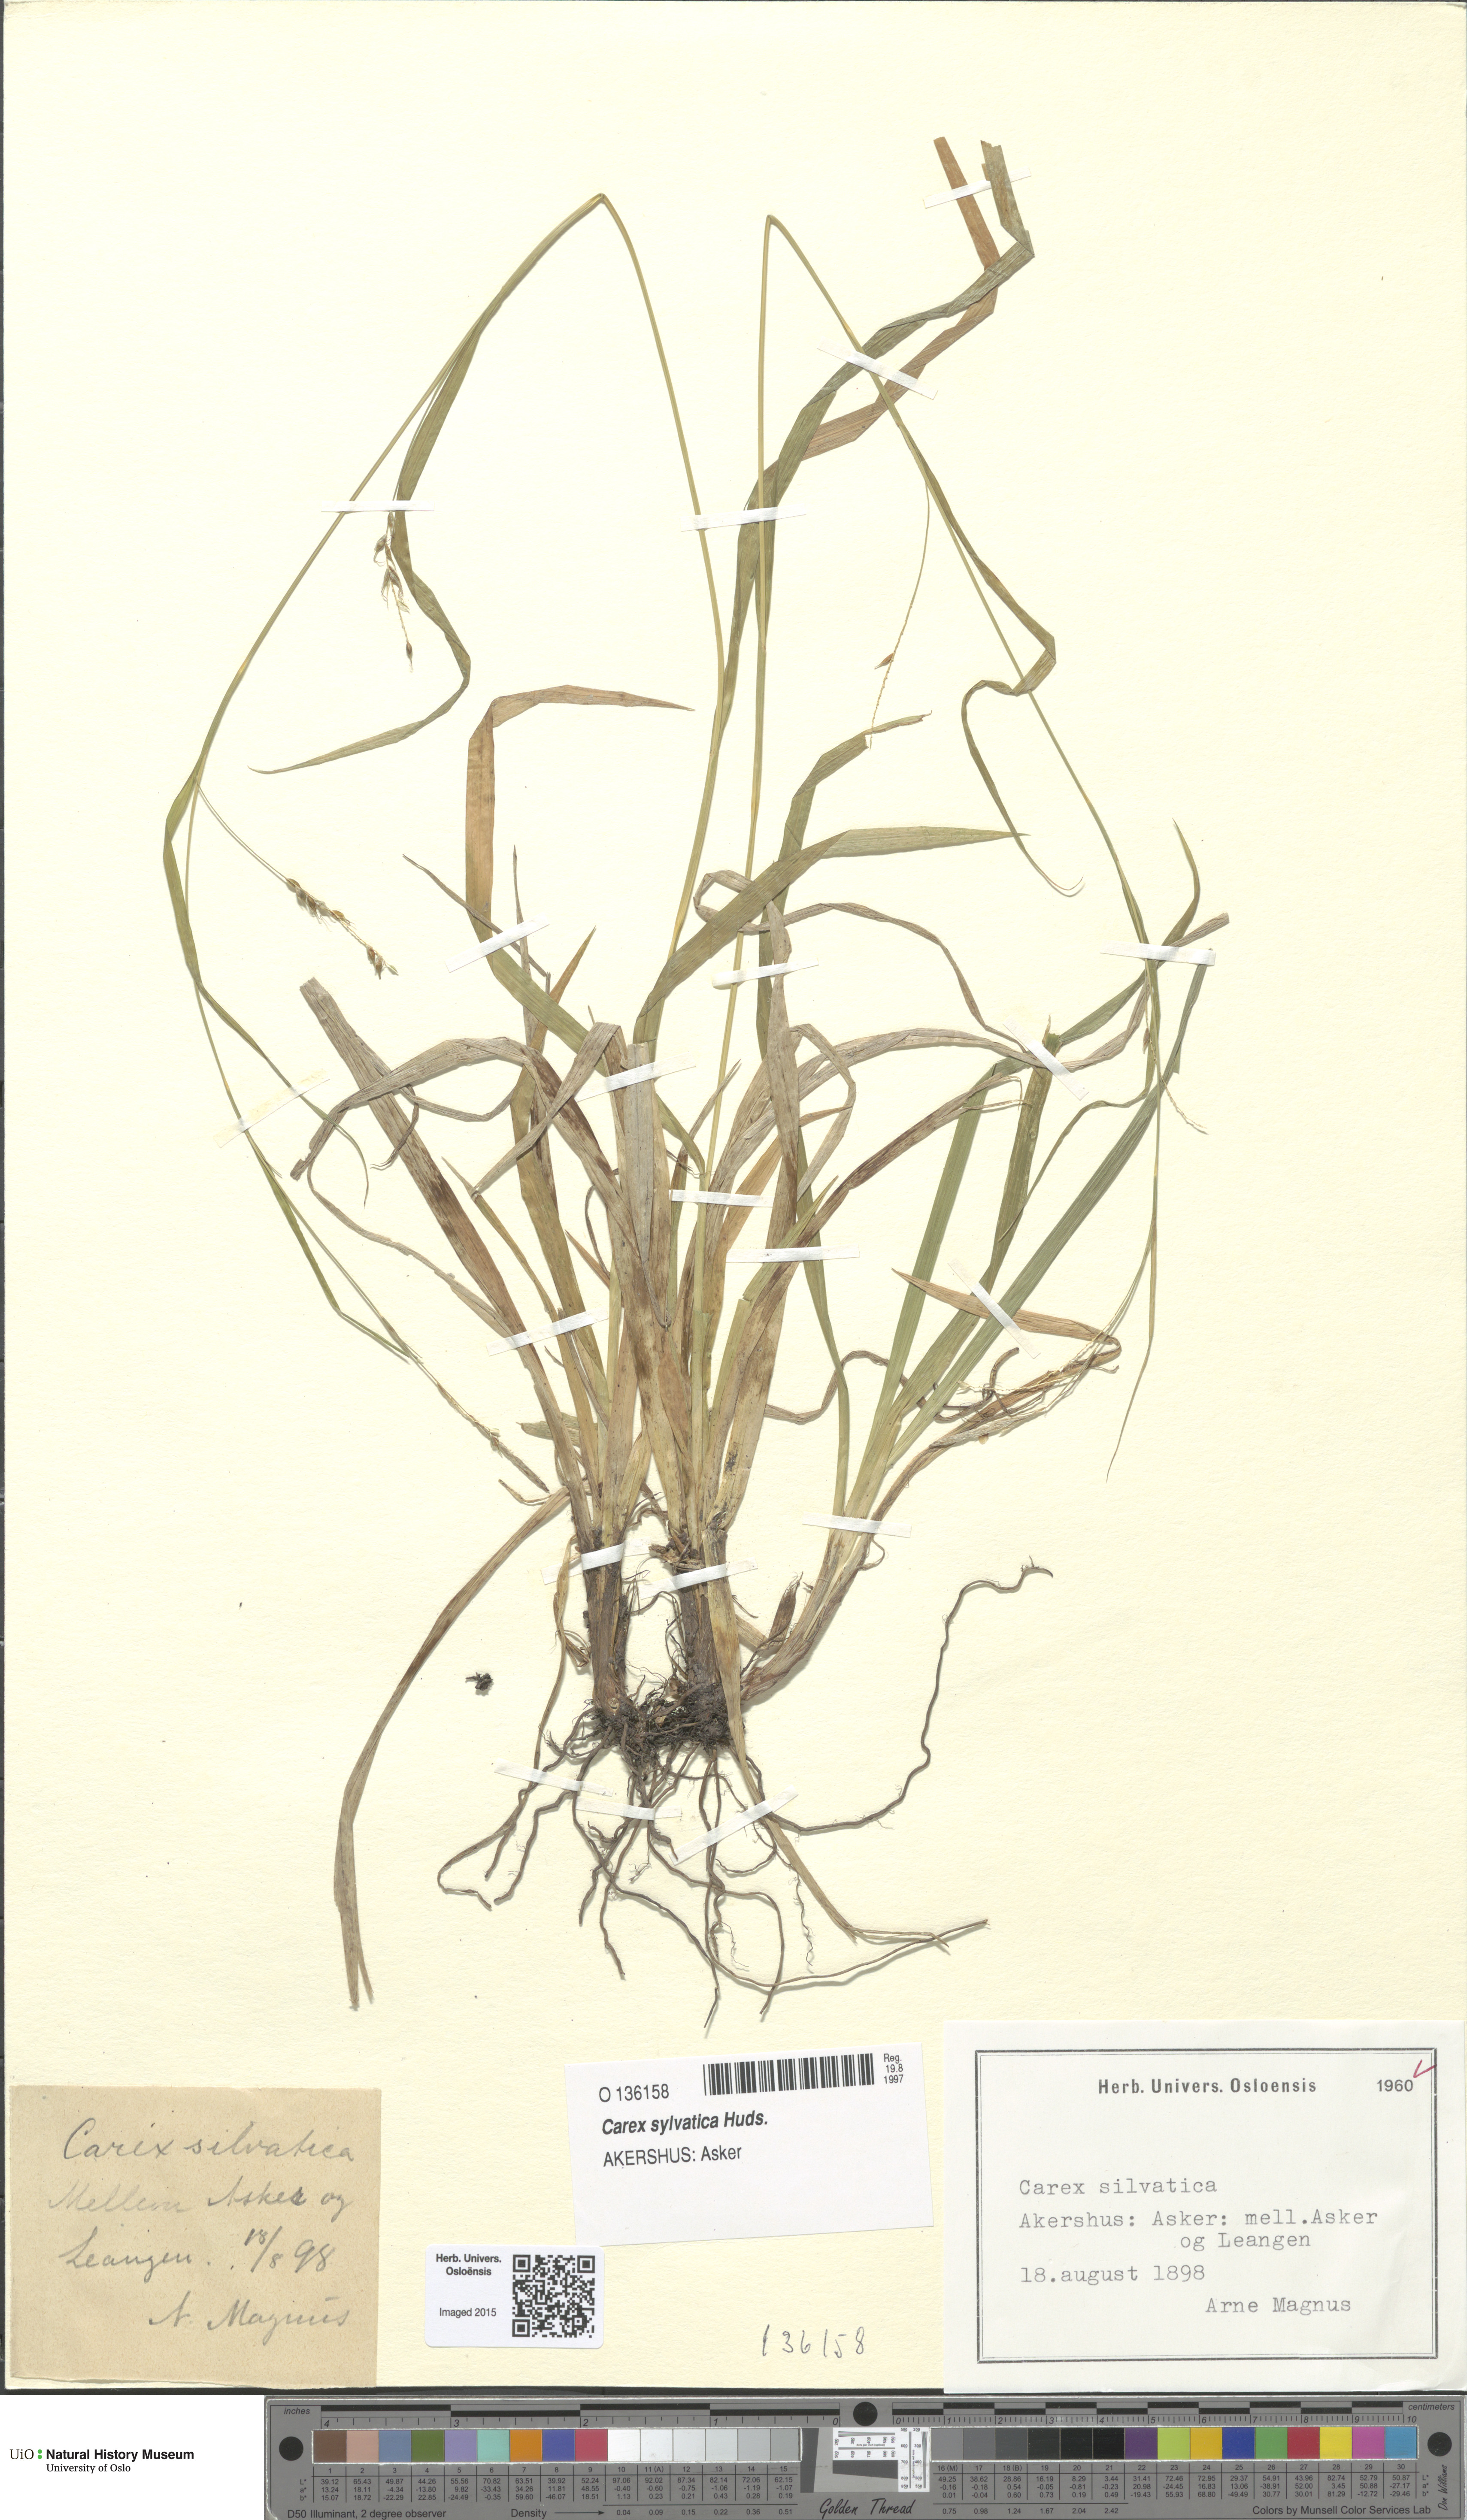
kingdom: Plantae
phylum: Tracheophyta
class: Liliopsida
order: Poales
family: Cyperaceae
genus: Carex
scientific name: Carex sylvatica
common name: Wood-sedge
